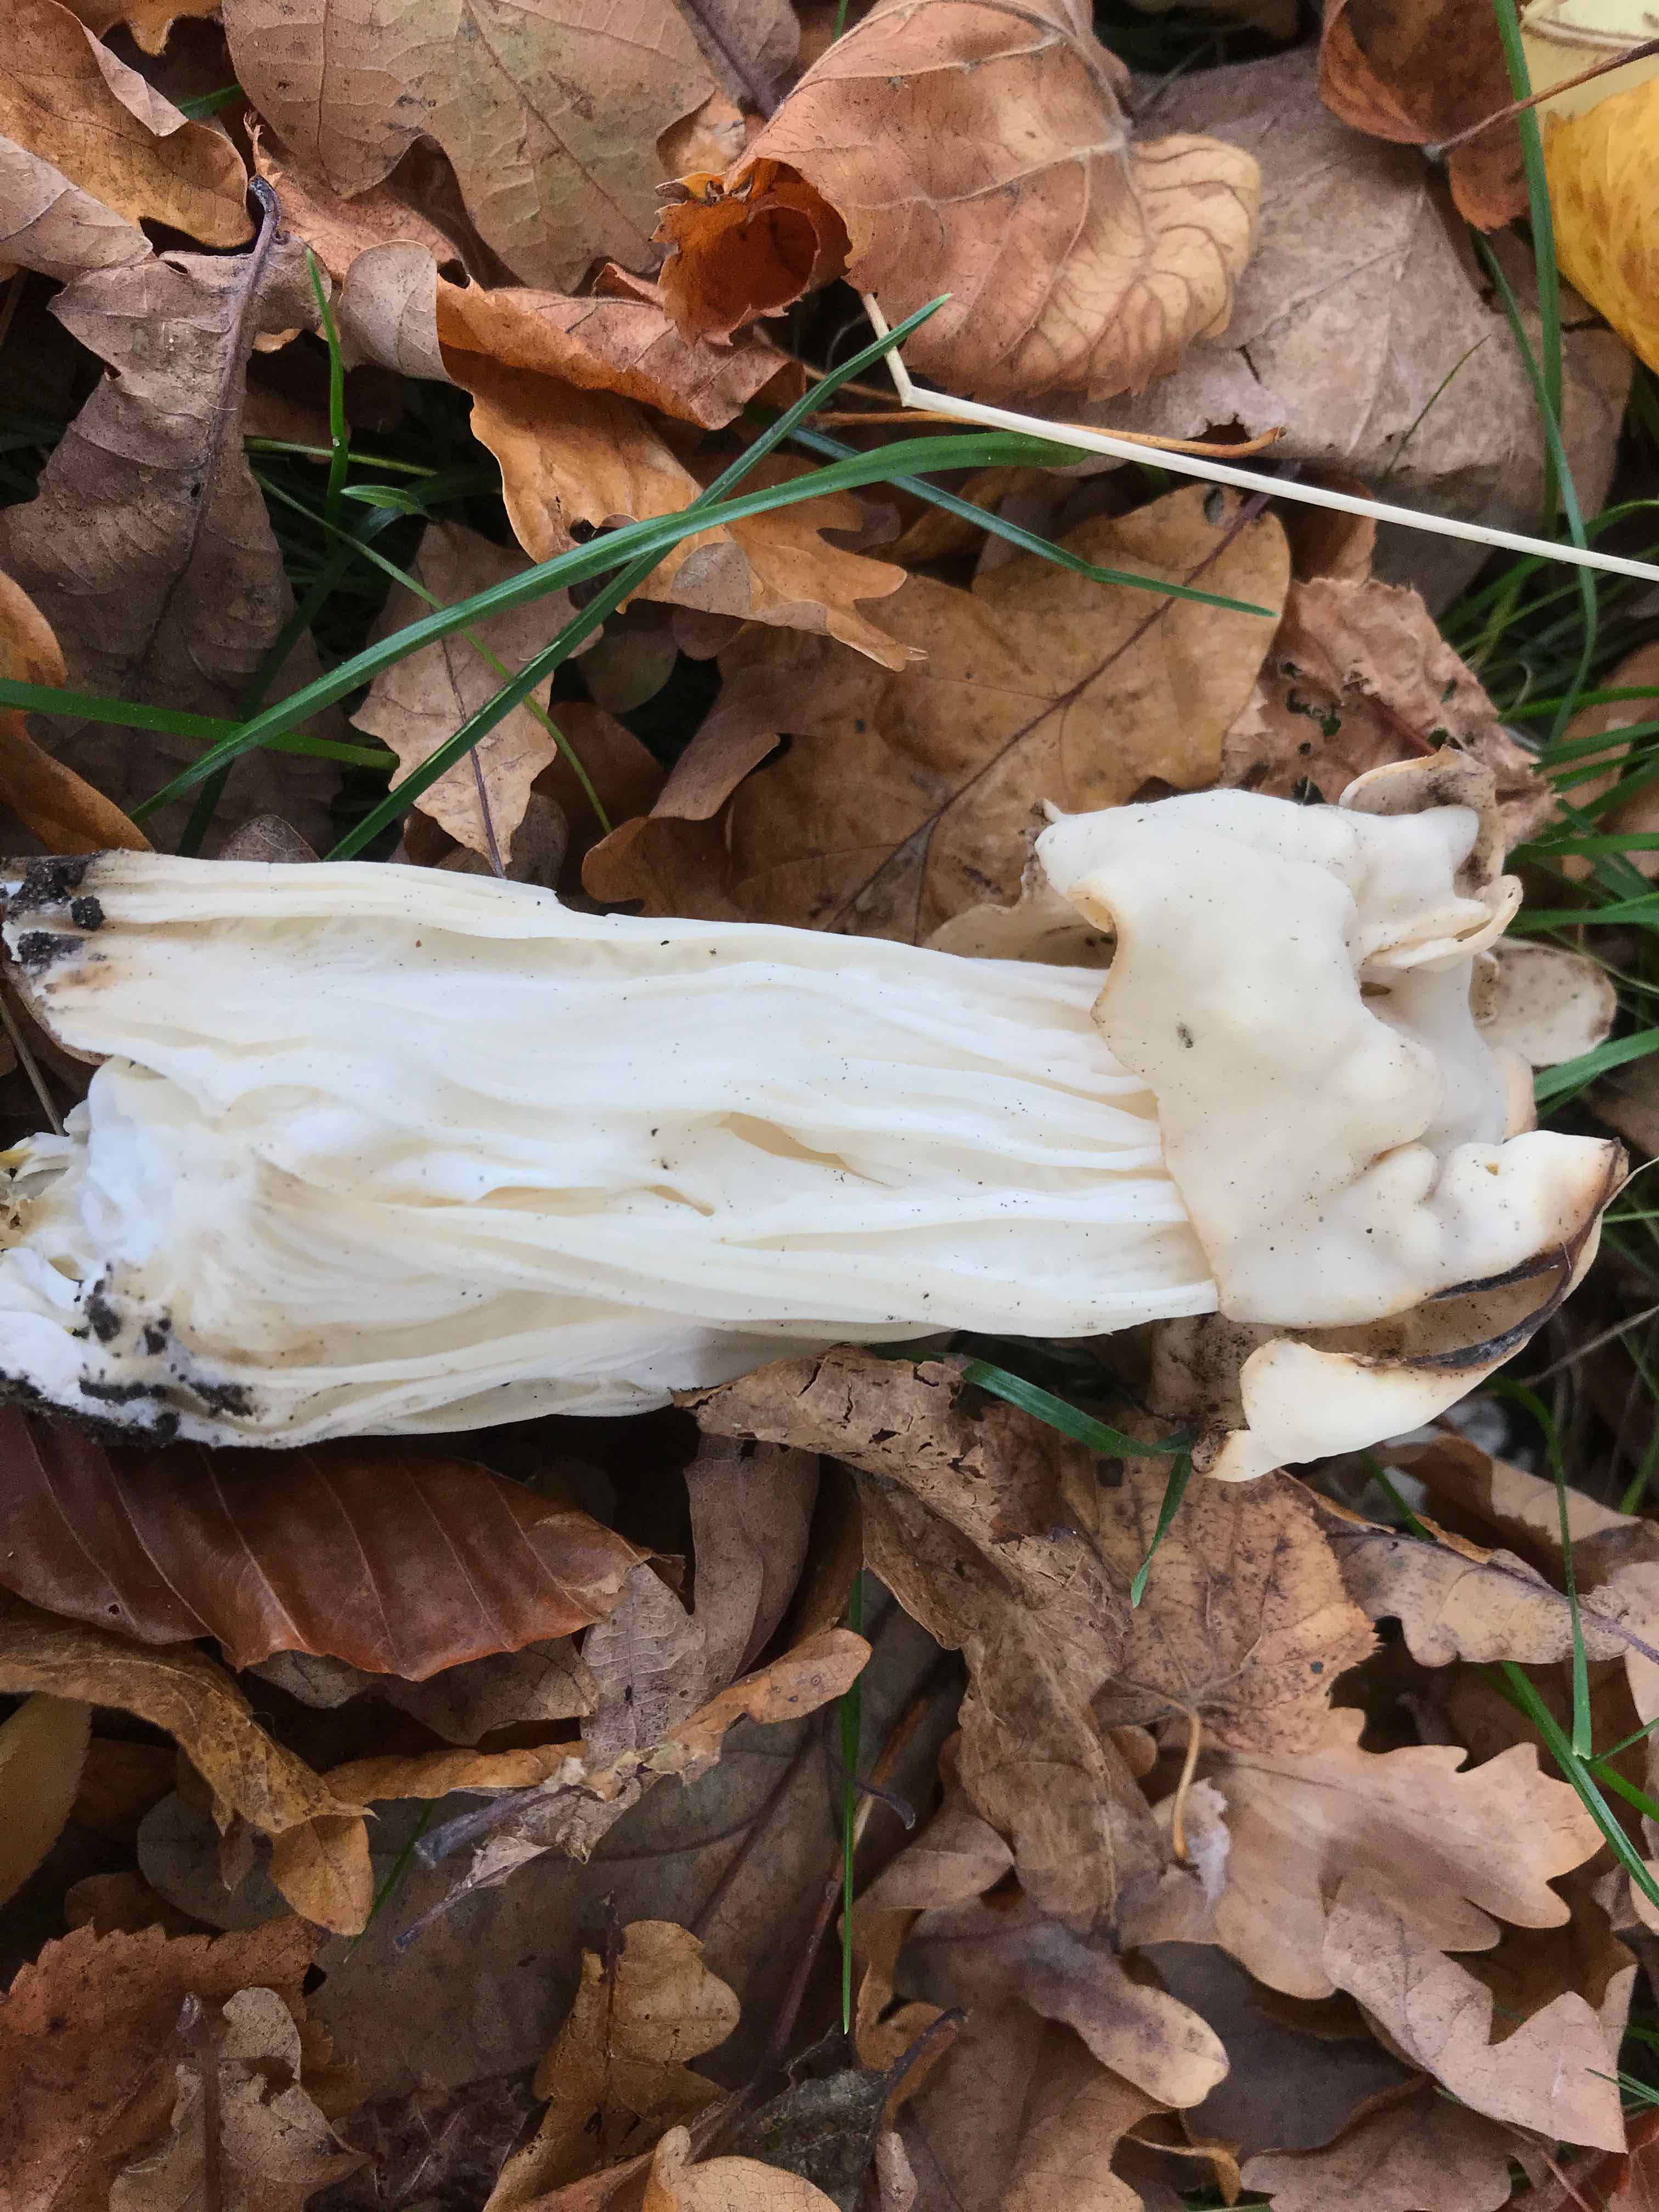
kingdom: Fungi
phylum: Ascomycota
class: Pezizomycetes
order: Pezizales
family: Helvellaceae
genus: Helvella
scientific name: Helvella crispa
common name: kruset foldhat
